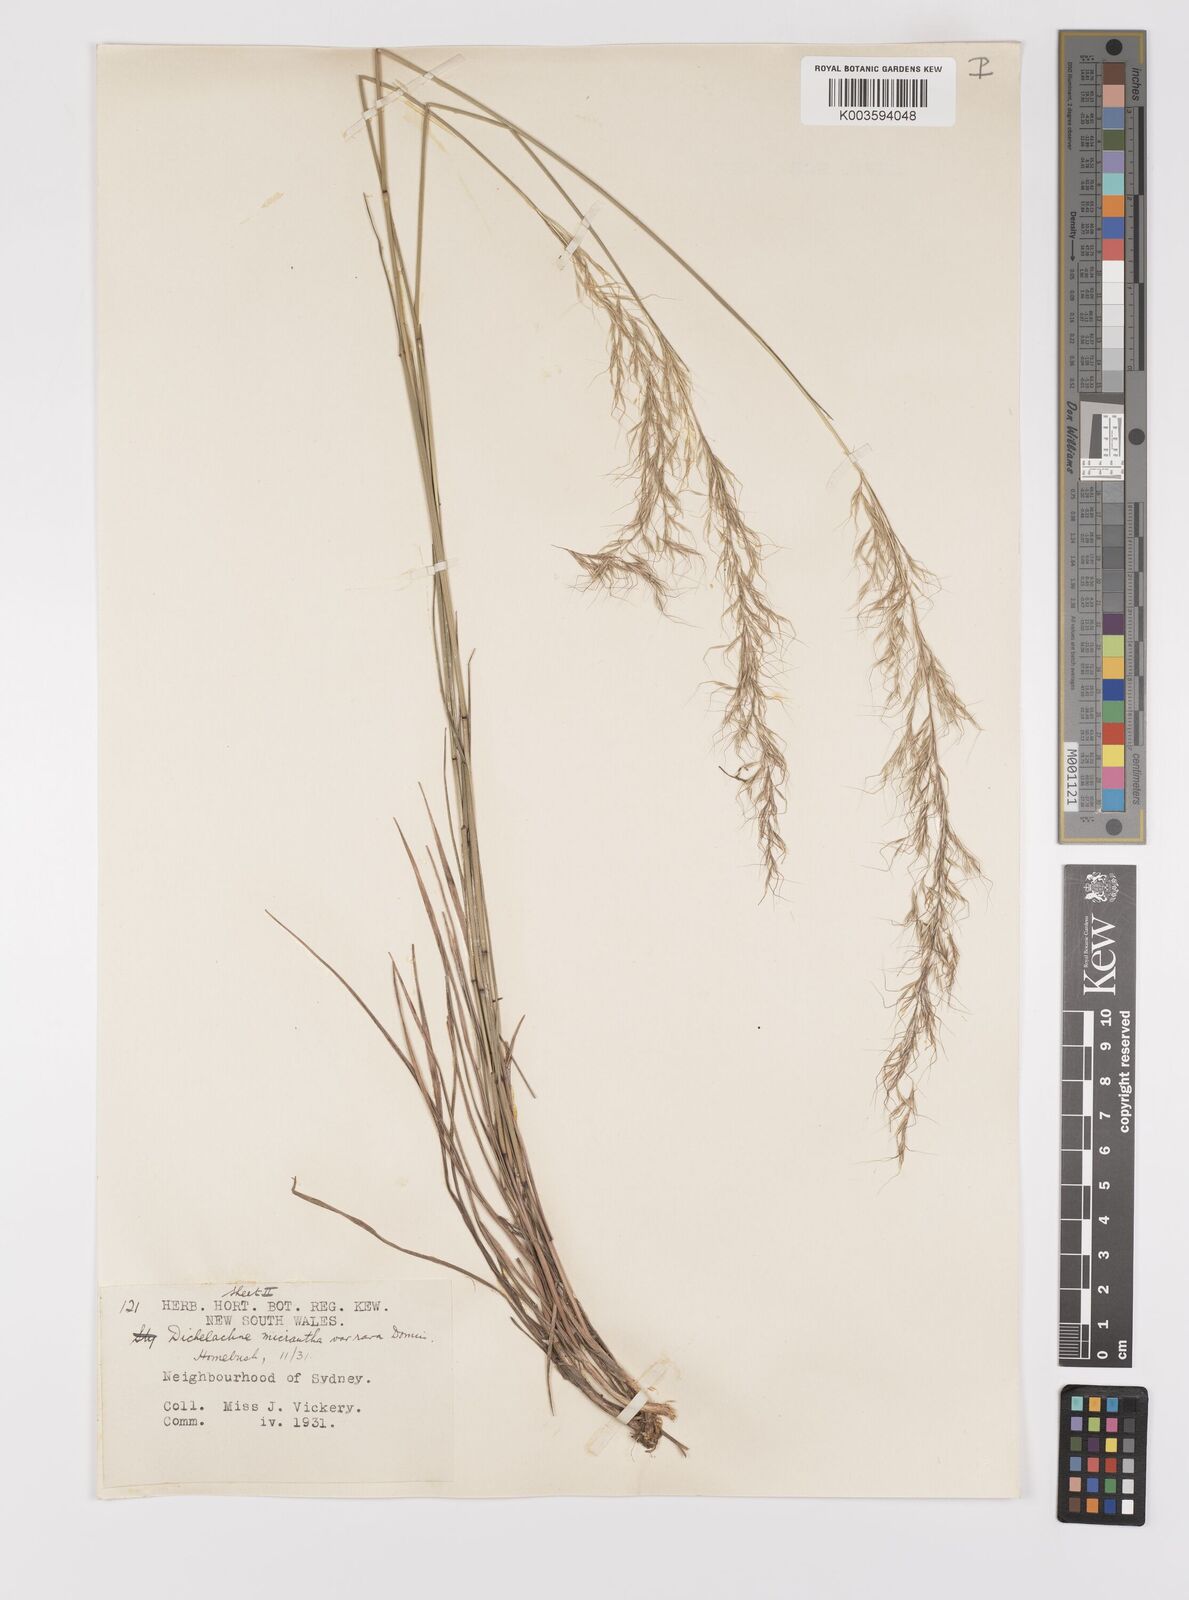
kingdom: Plantae
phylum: Tracheophyta
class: Liliopsida
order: Poales
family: Poaceae
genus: Dichelachne
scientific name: Dichelachne rara
